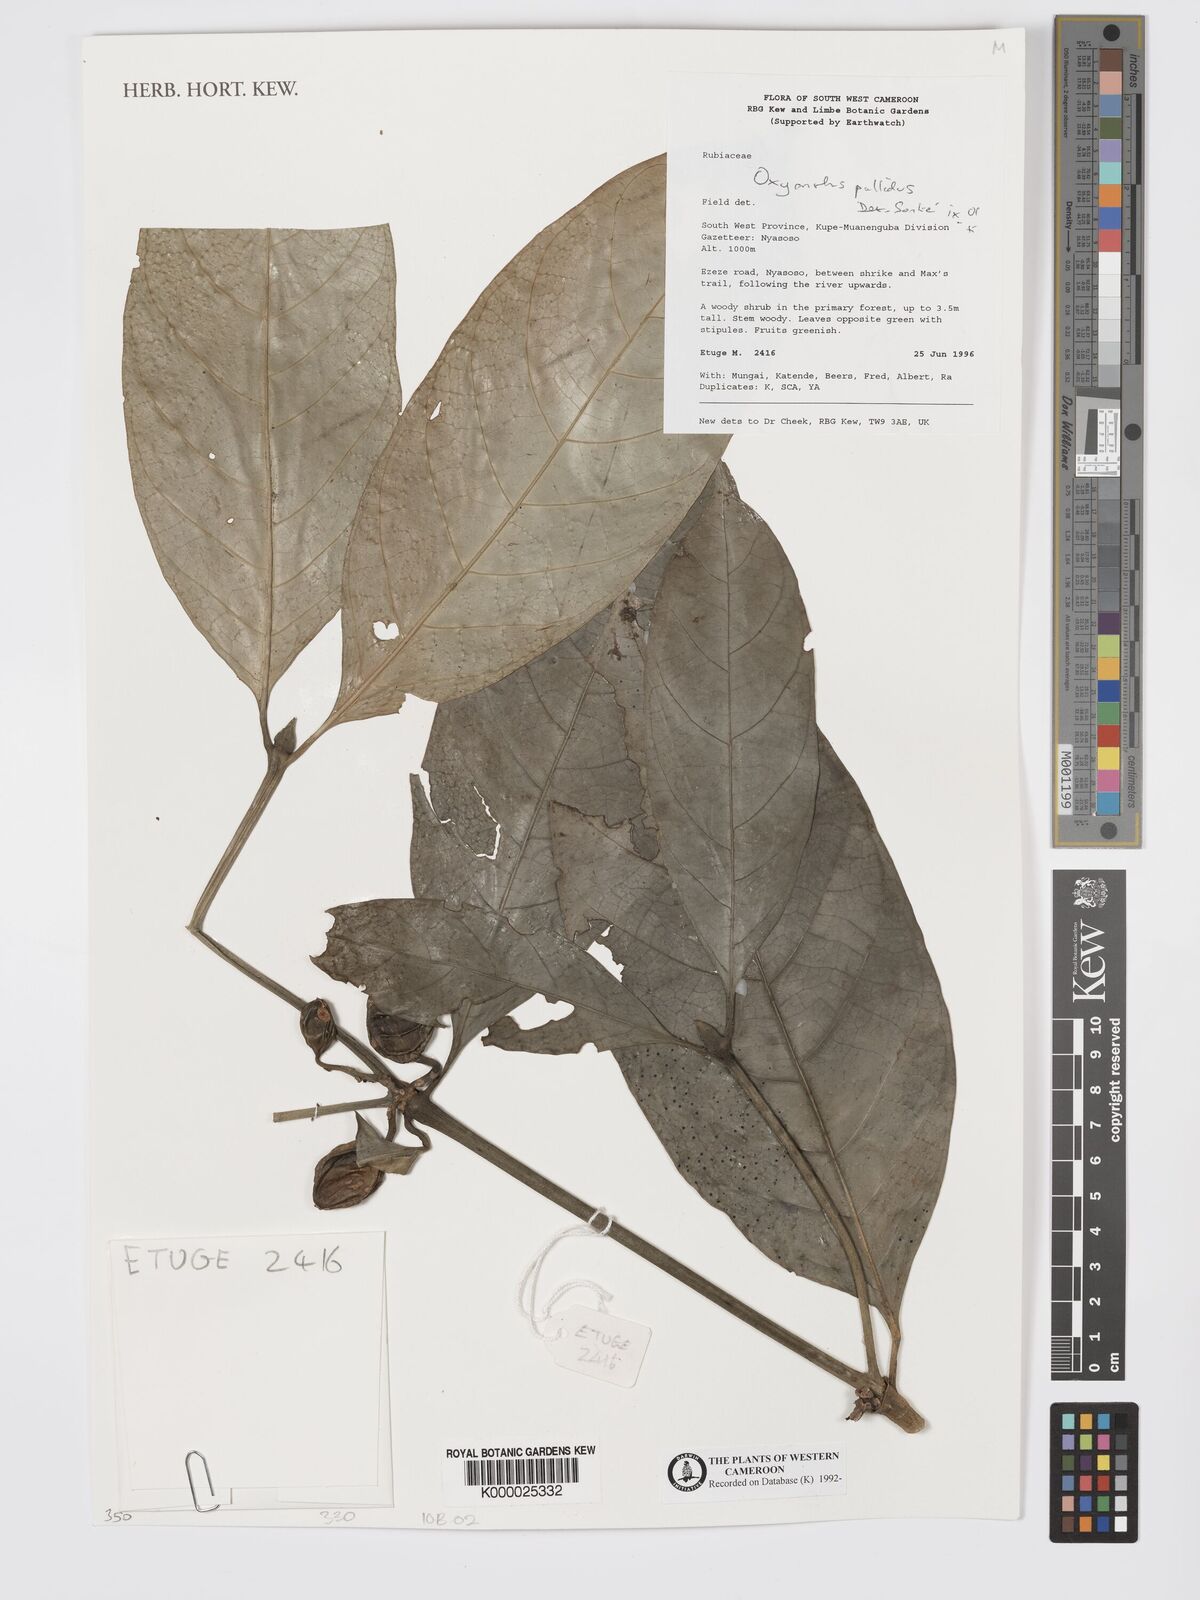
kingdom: Plantae
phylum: Tracheophyta
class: Magnoliopsida
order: Gentianales
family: Rubiaceae
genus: Oxyanthus
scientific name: Oxyanthus pallidus
